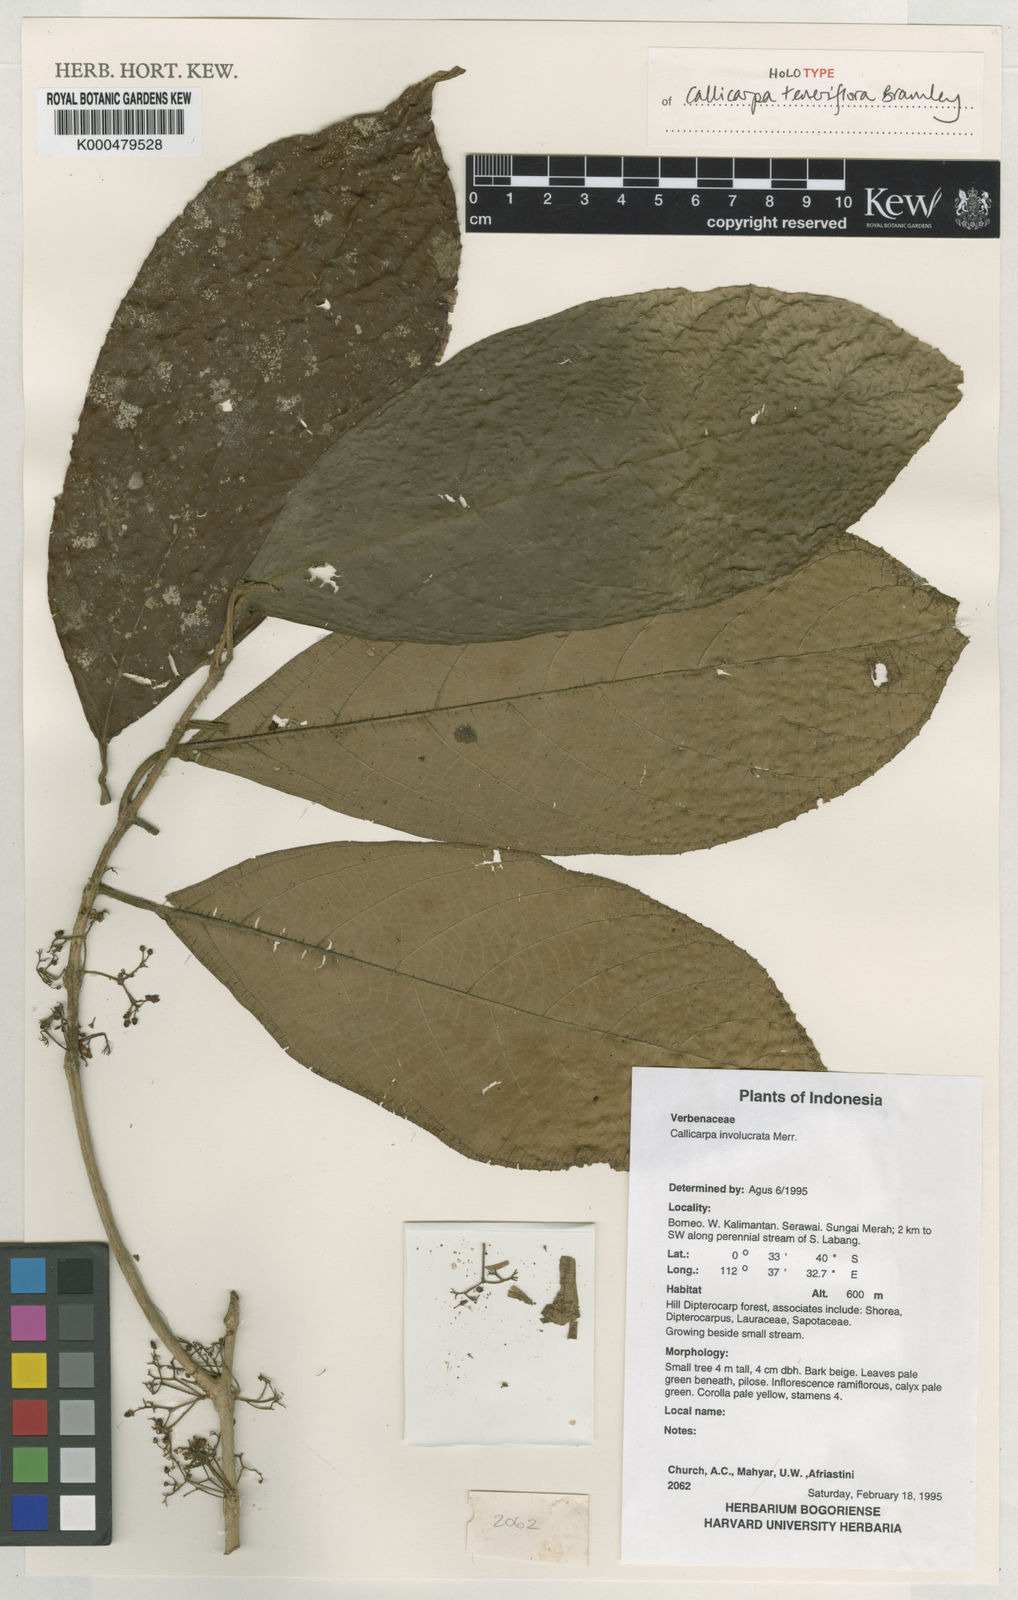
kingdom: Plantae
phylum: Tracheophyta
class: Magnoliopsida
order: Lamiales
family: Lamiaceae
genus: Callicarpa
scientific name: Callicarpa
